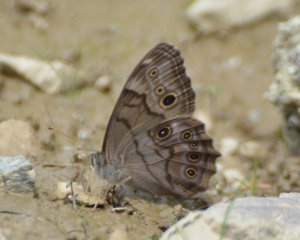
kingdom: Animalia
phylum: Arthropoda
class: Insecta
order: Lepidoptera
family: Nymphalidae
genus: Lethe
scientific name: Lethe anthedon
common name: Northern Pearly-Eye
